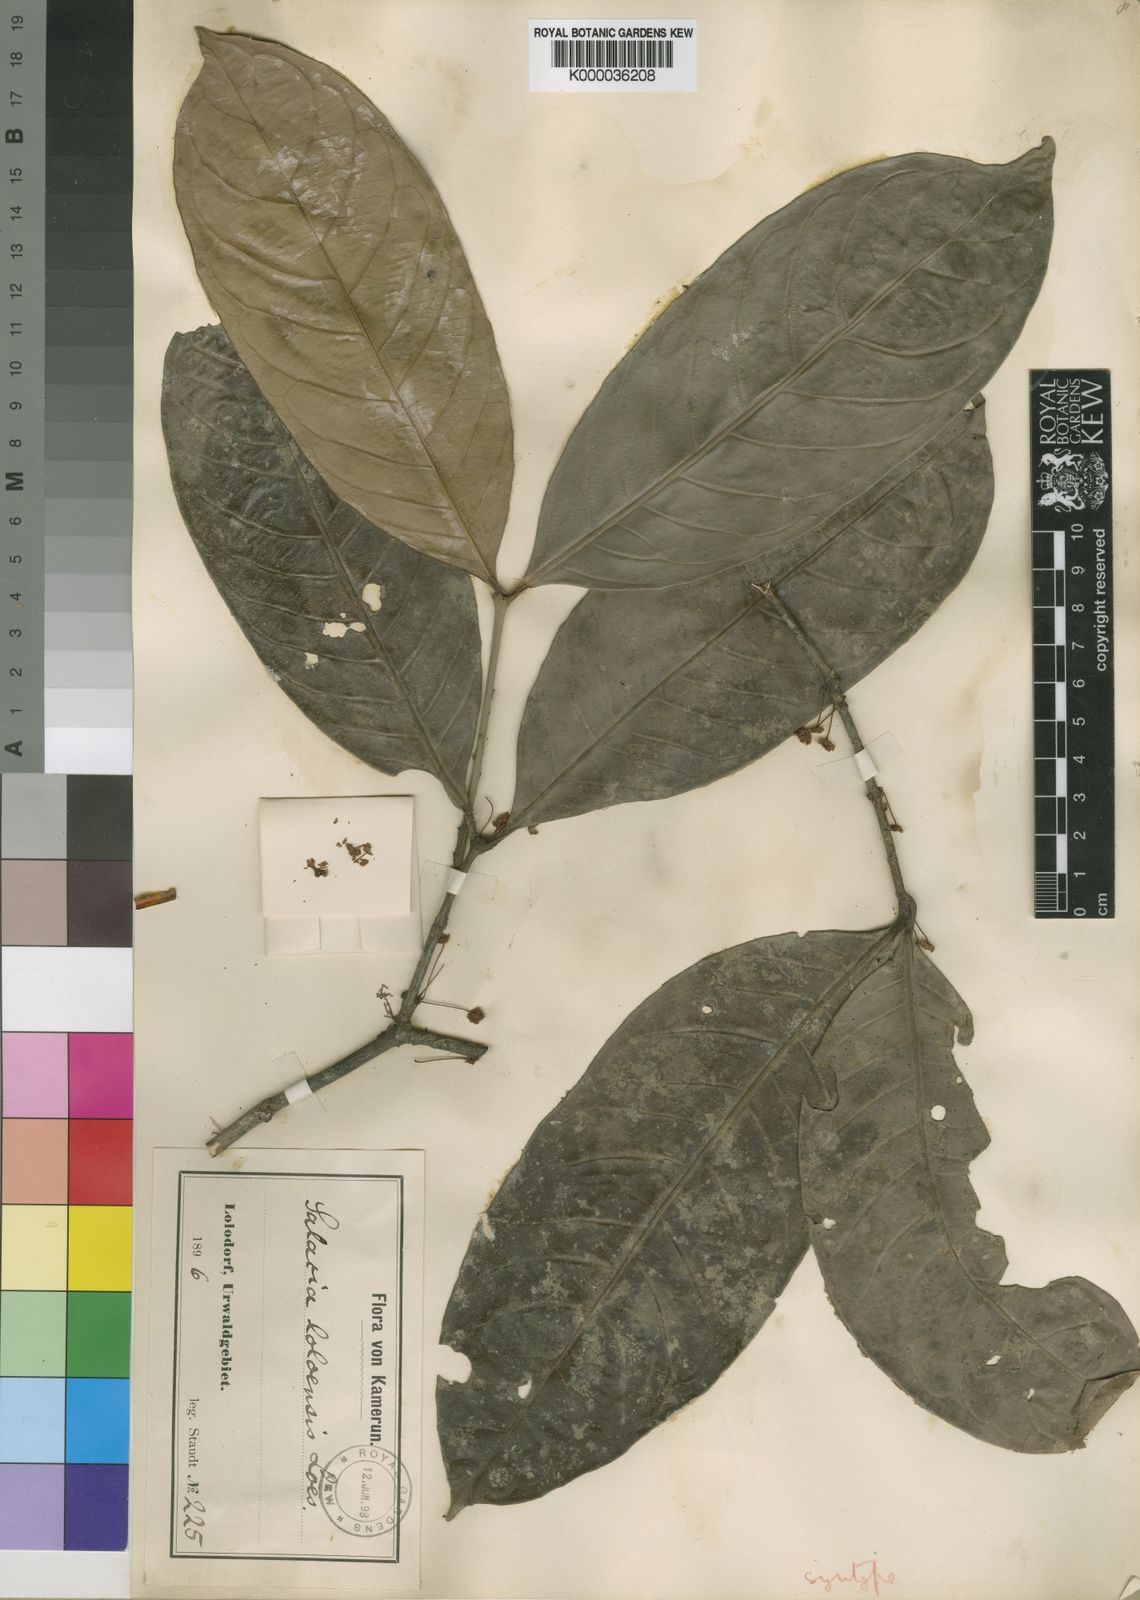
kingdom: Plantae
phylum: Tracheophyta
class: Magnoliopsida
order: Celastrales
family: Celastraceae
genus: Salacia
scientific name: Salacia loloensis
